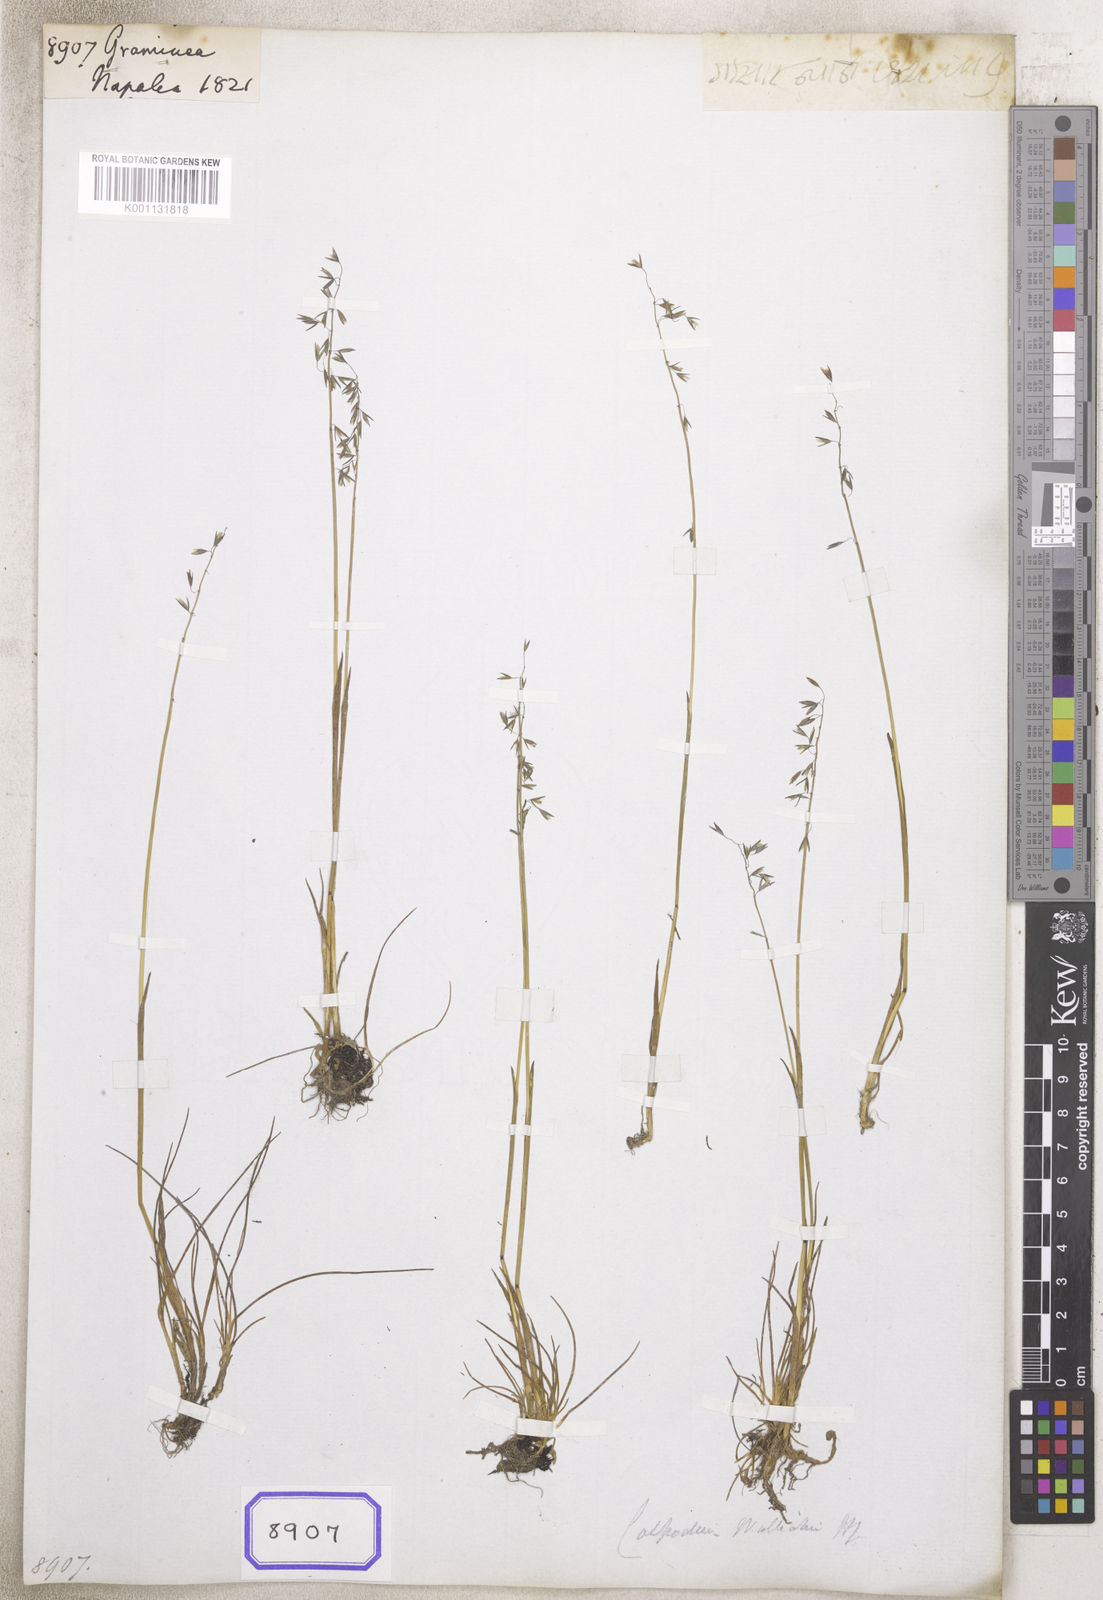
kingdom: Plantae
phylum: Tracheophyta
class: Liliopsida
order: Poales
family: Poaceae
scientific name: Poaceae
